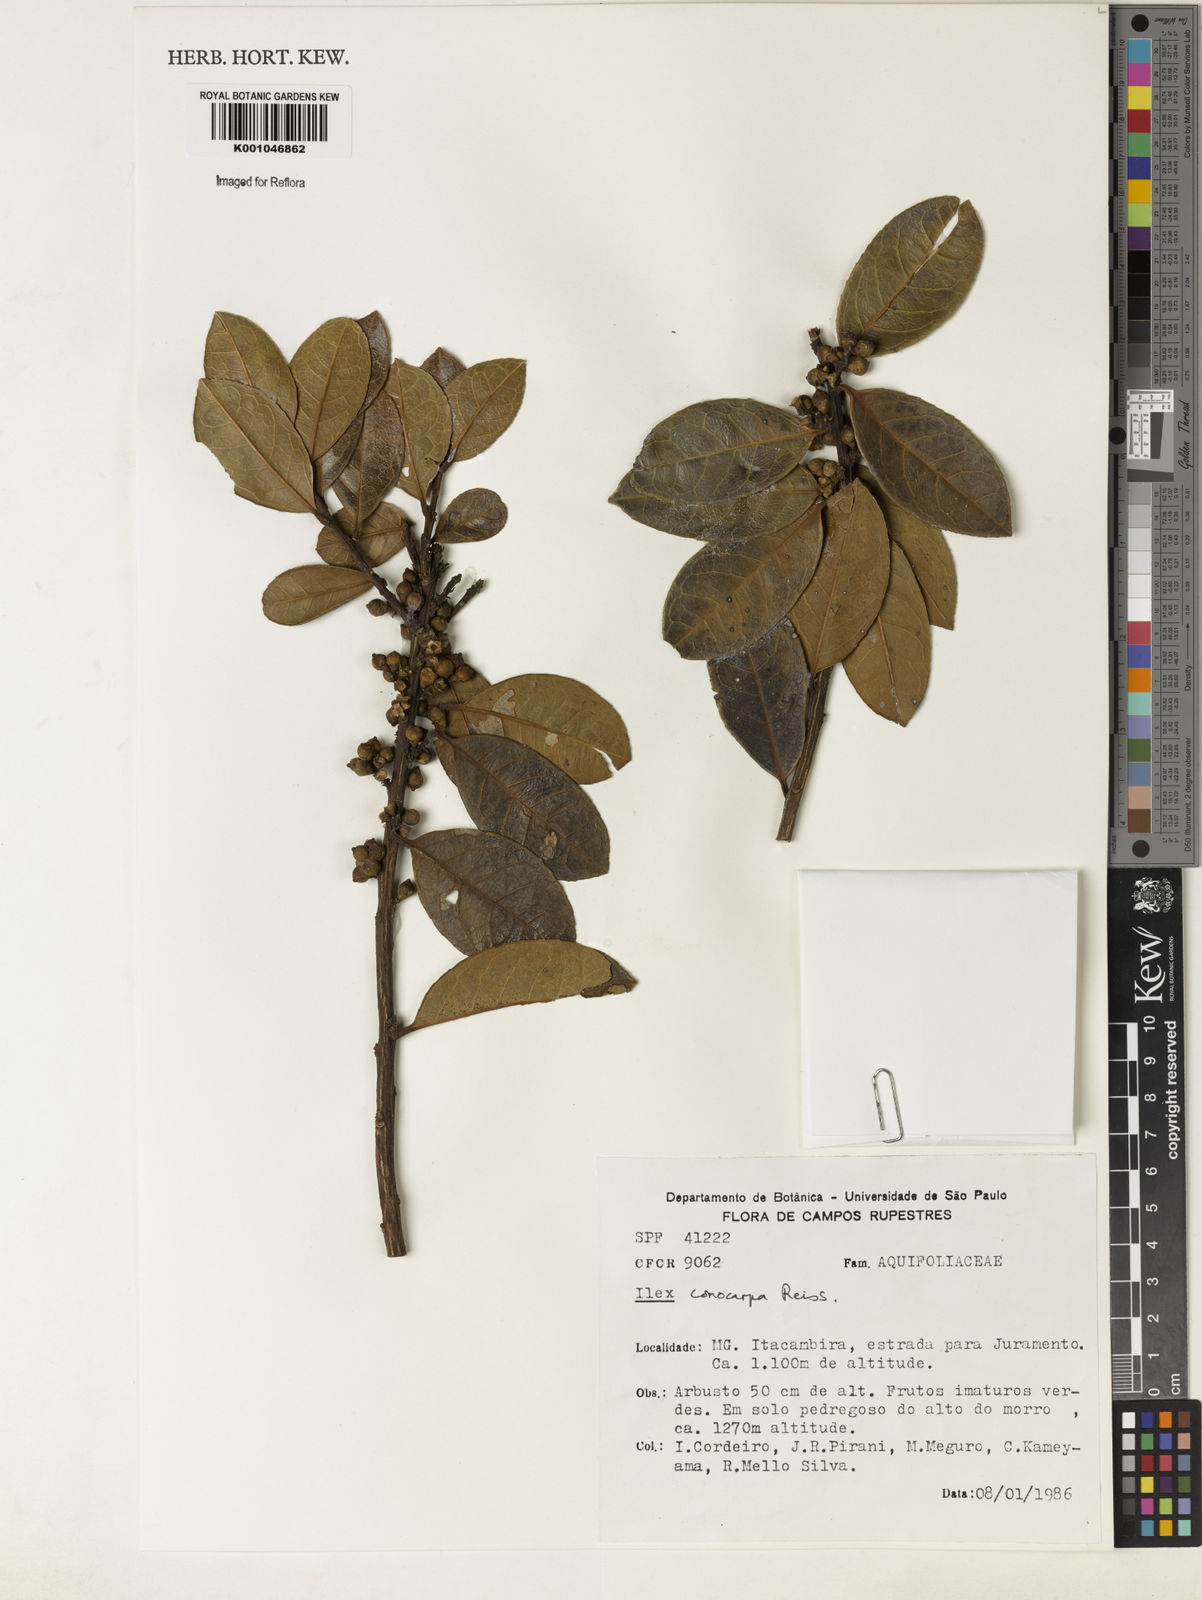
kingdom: Plantae
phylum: Tracheophyta
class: Magnoliopsida
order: Aquifoliales
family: Aquifoliaceae
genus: Ilex
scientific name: Ilex conocarpa
